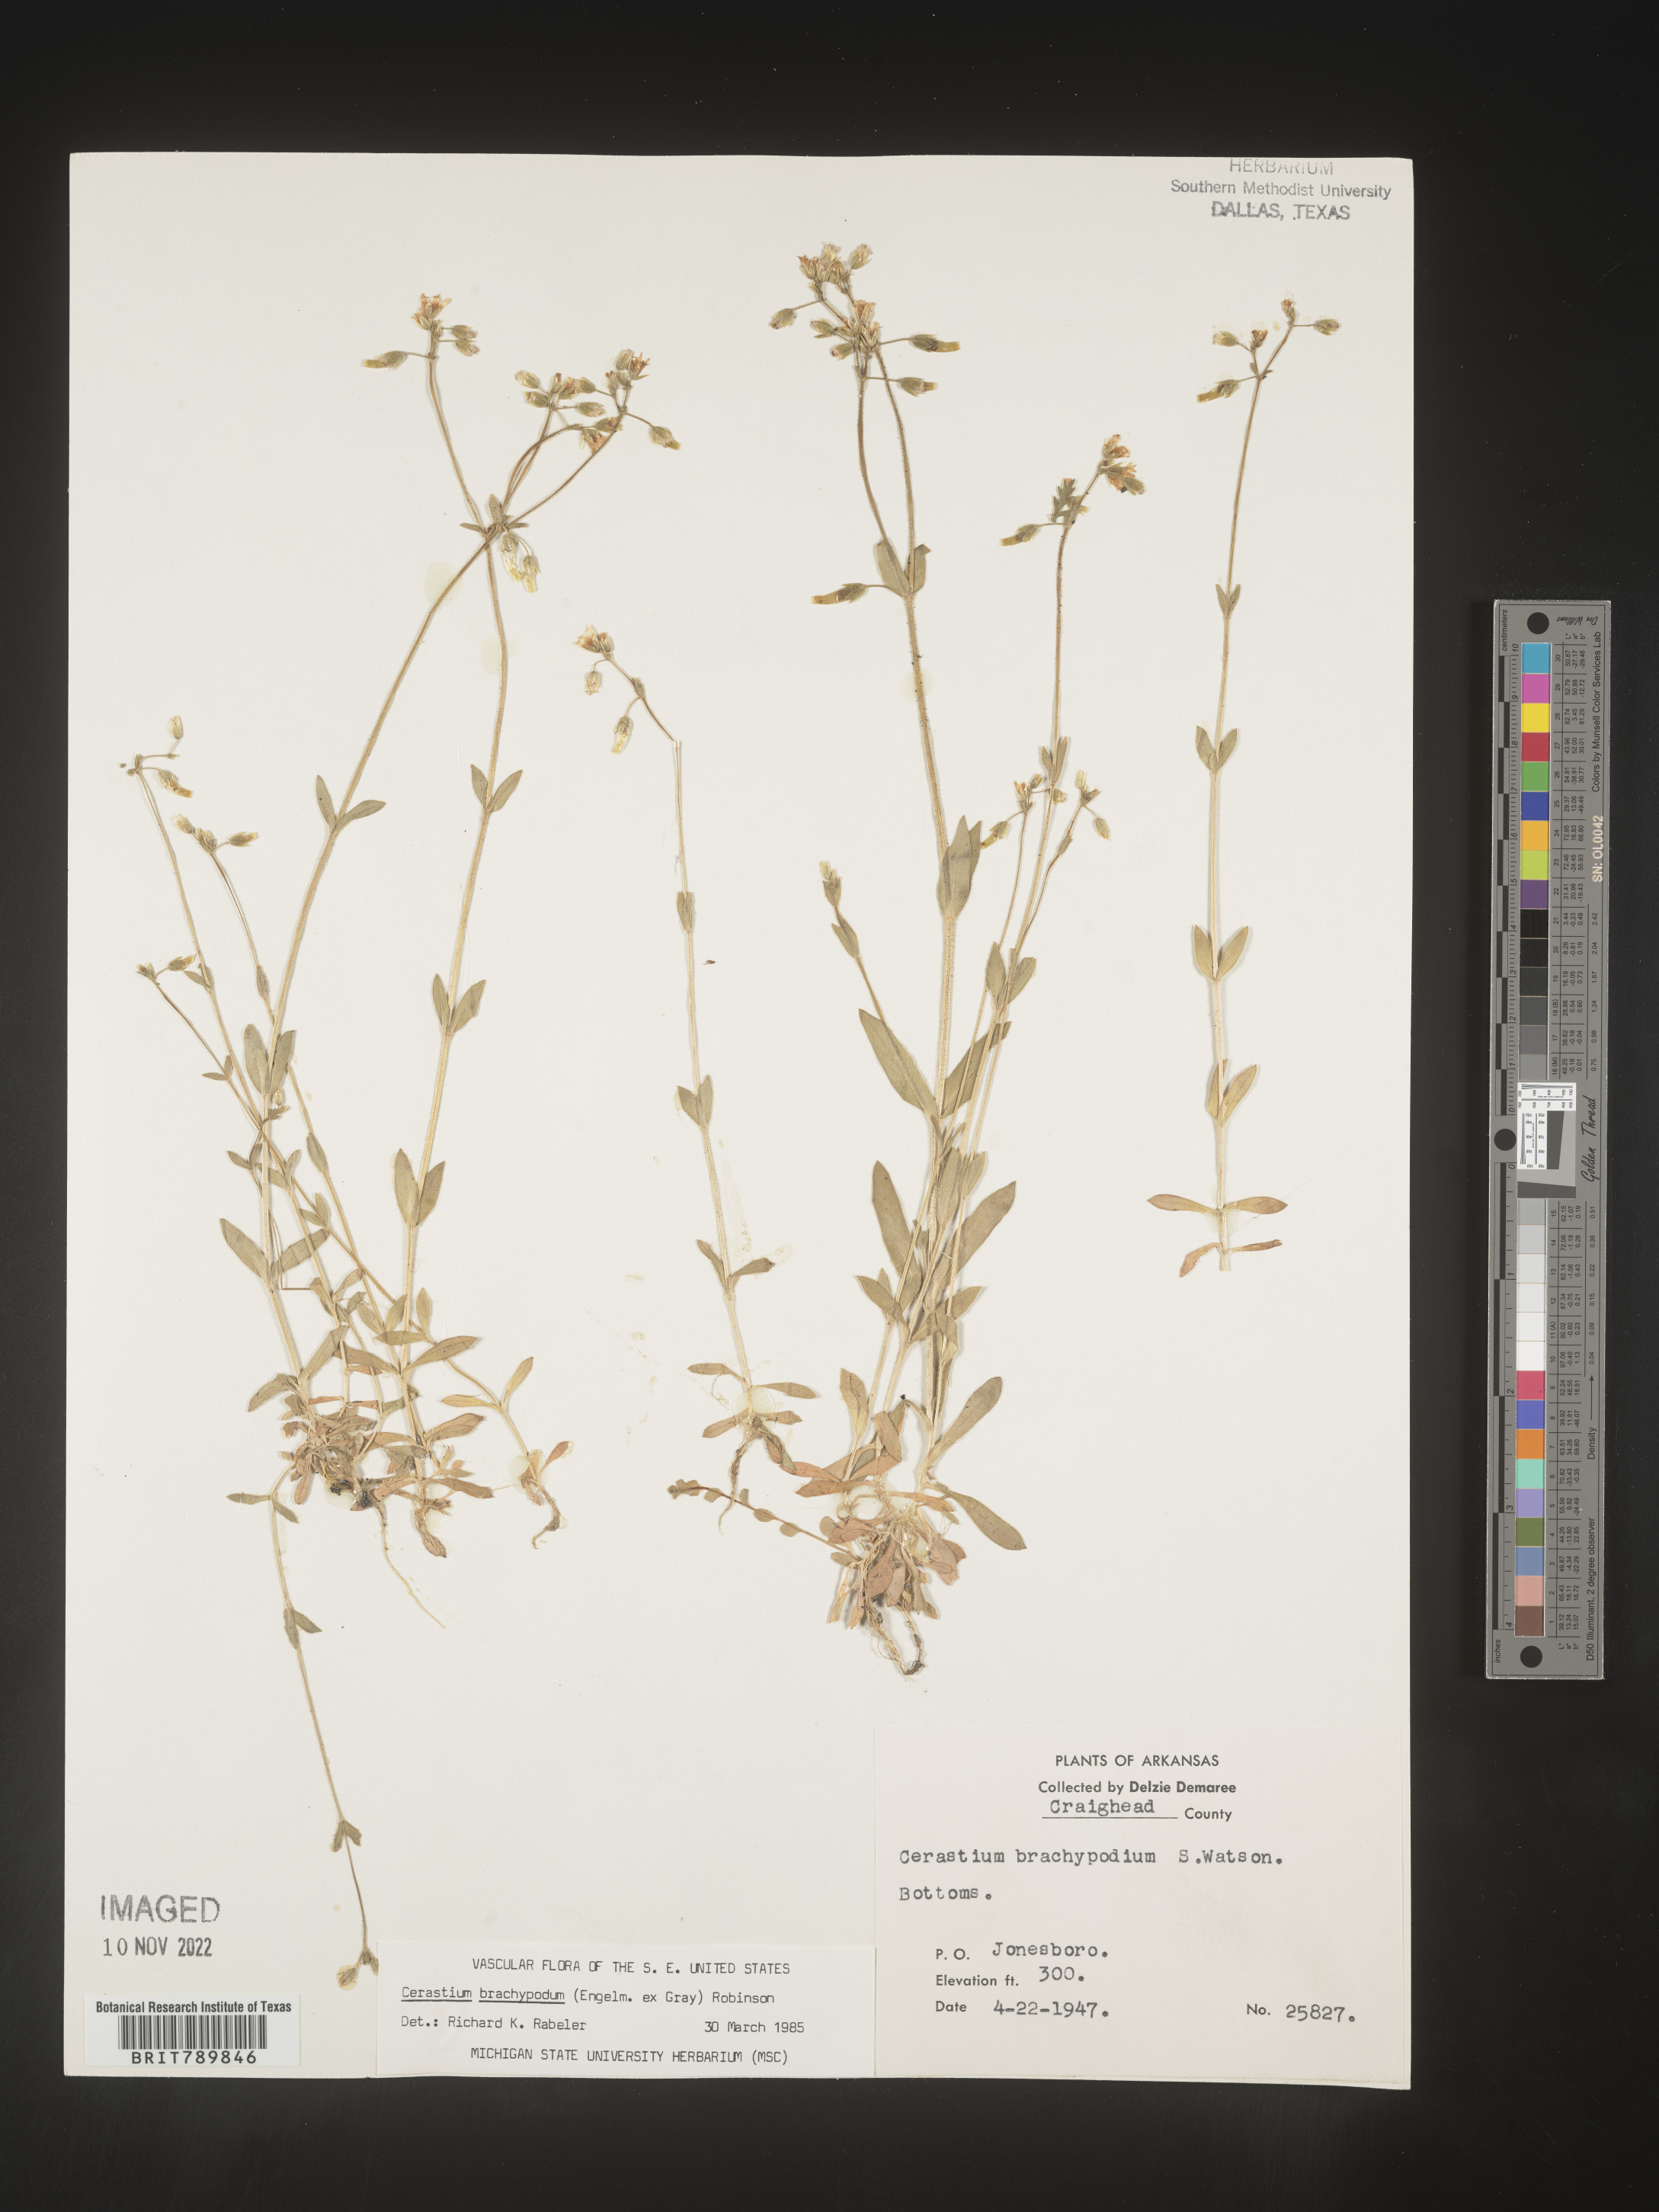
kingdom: Plantae
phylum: Tracheophyta
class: Magnoliopsida
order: Caryophyllales
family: Caryophyllaceae
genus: Cerastium
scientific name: Cerastium brachypodum
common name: Short-pedicelled nodding chickweed
